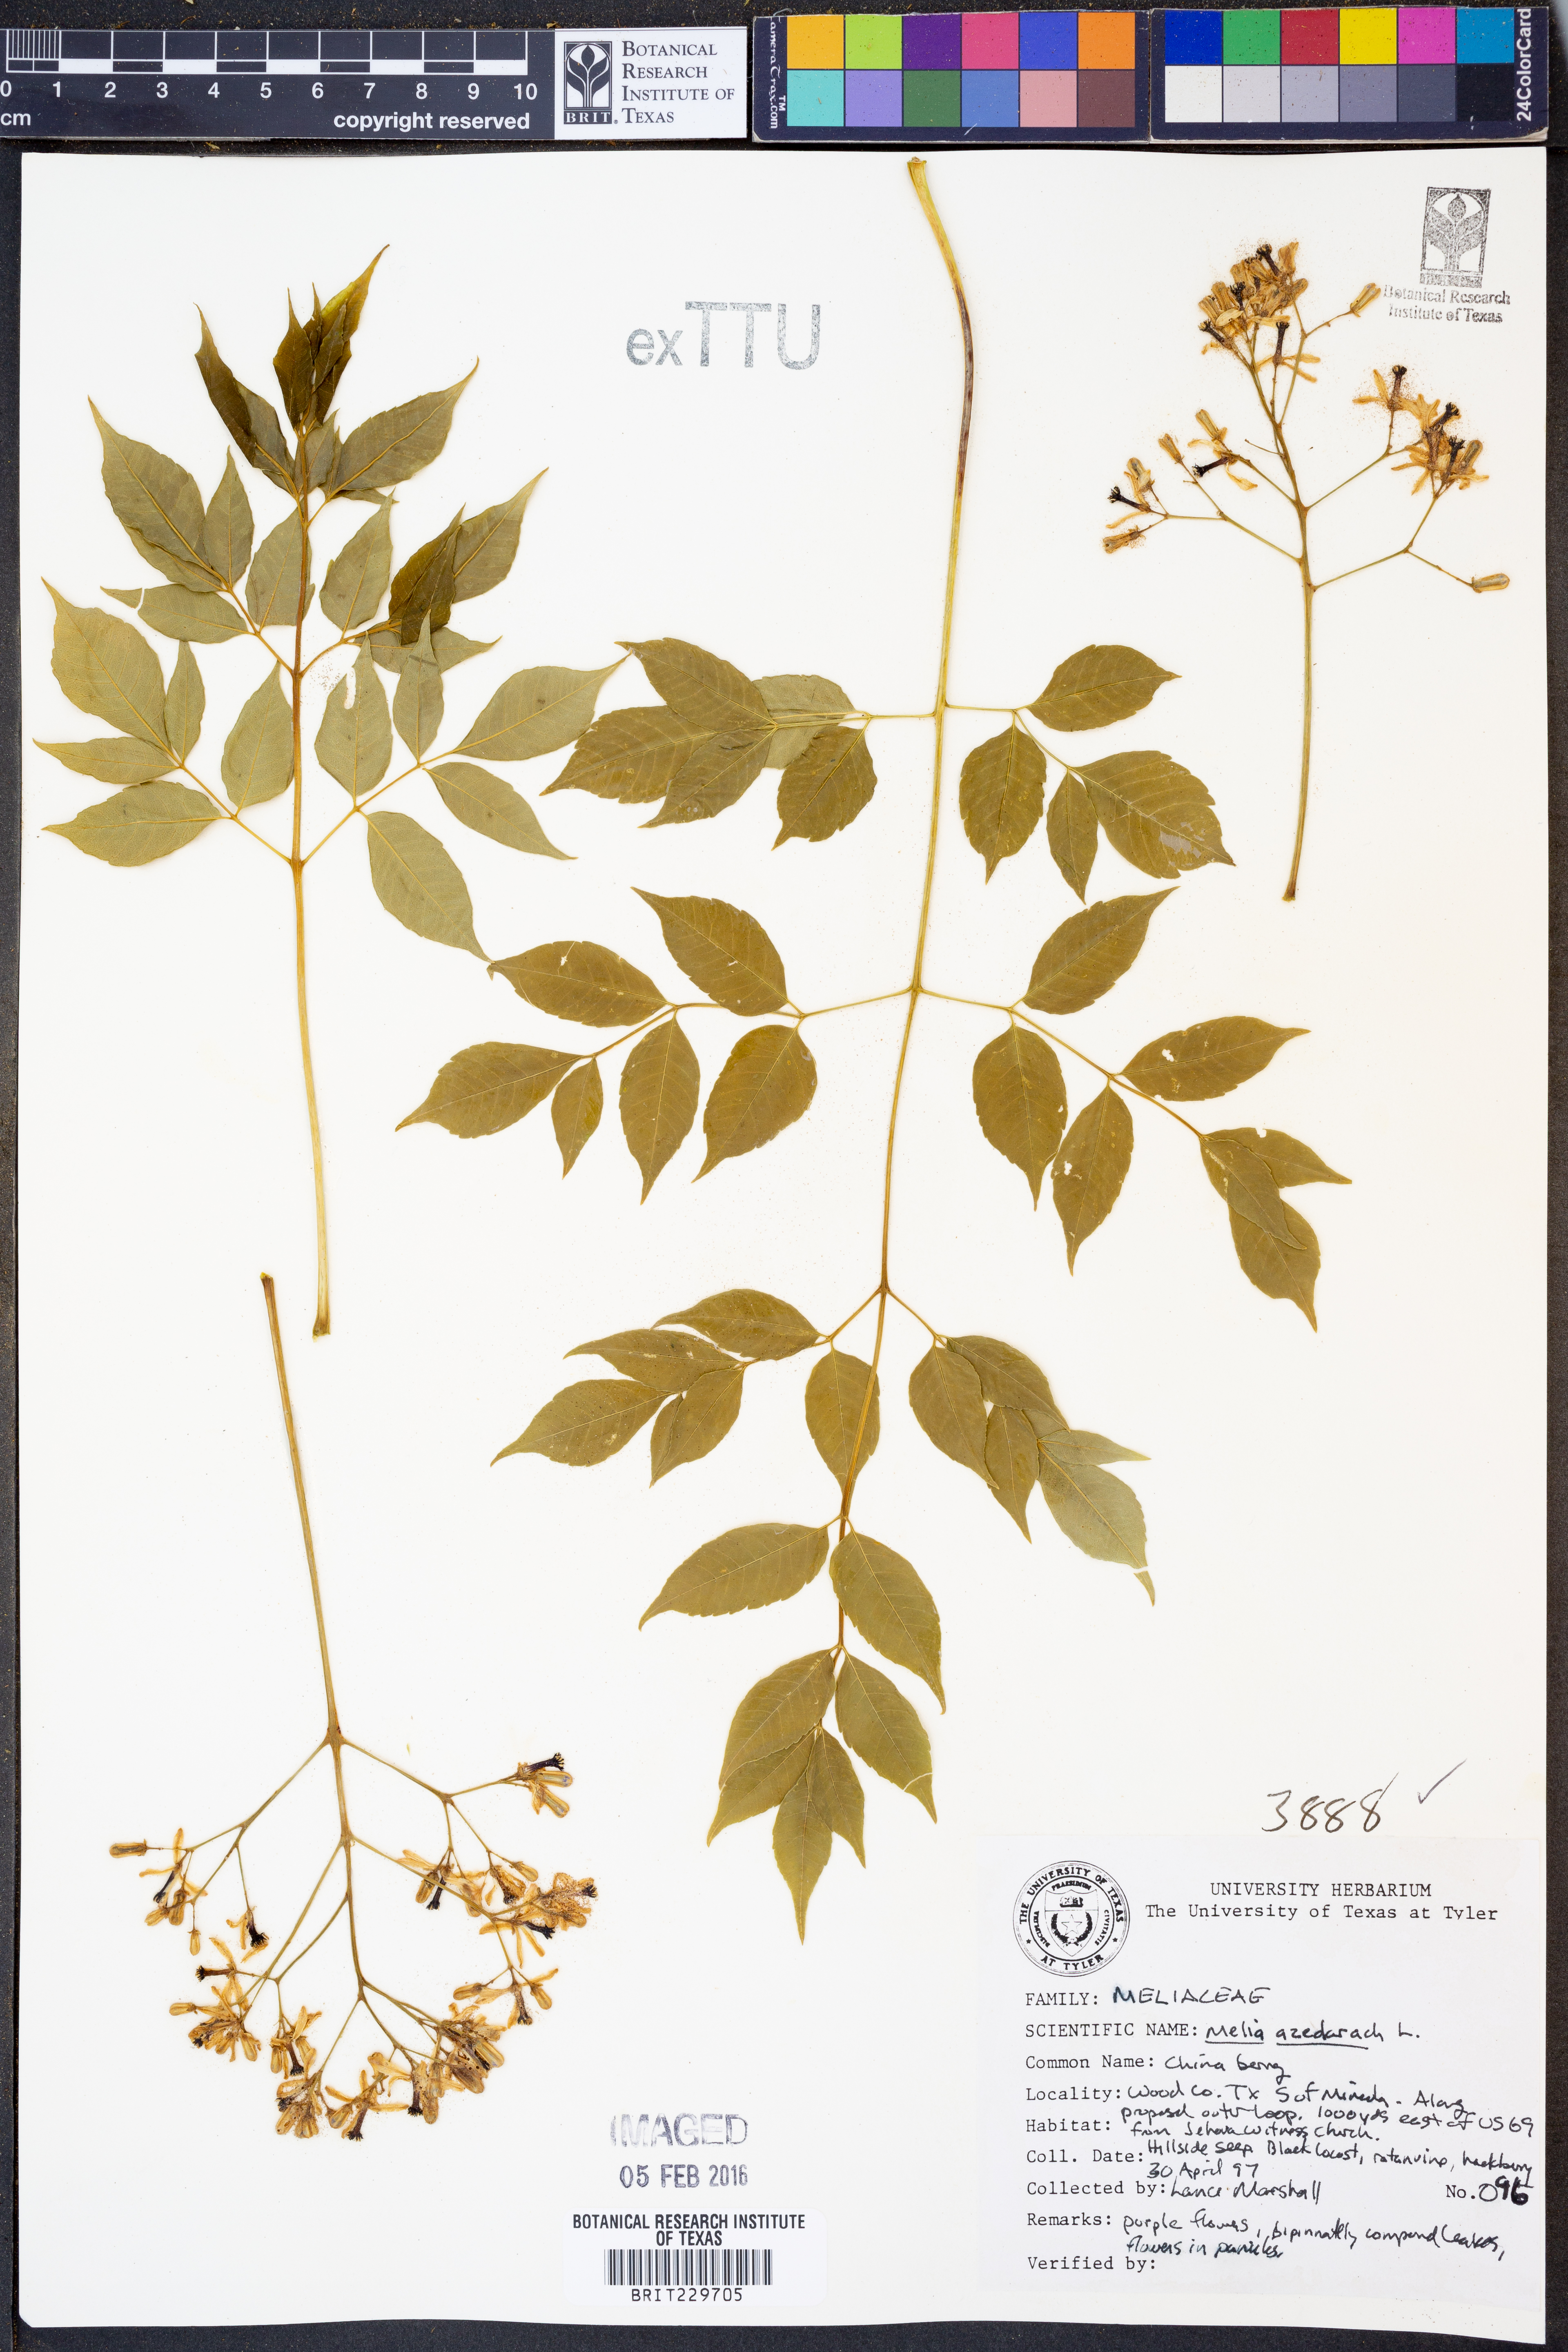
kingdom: Plantae
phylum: Tracheophyta
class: Magnoliopsida
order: Sapindales
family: Meliaceae
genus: Melia
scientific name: Melia azedarach
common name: Chinaberrytree
